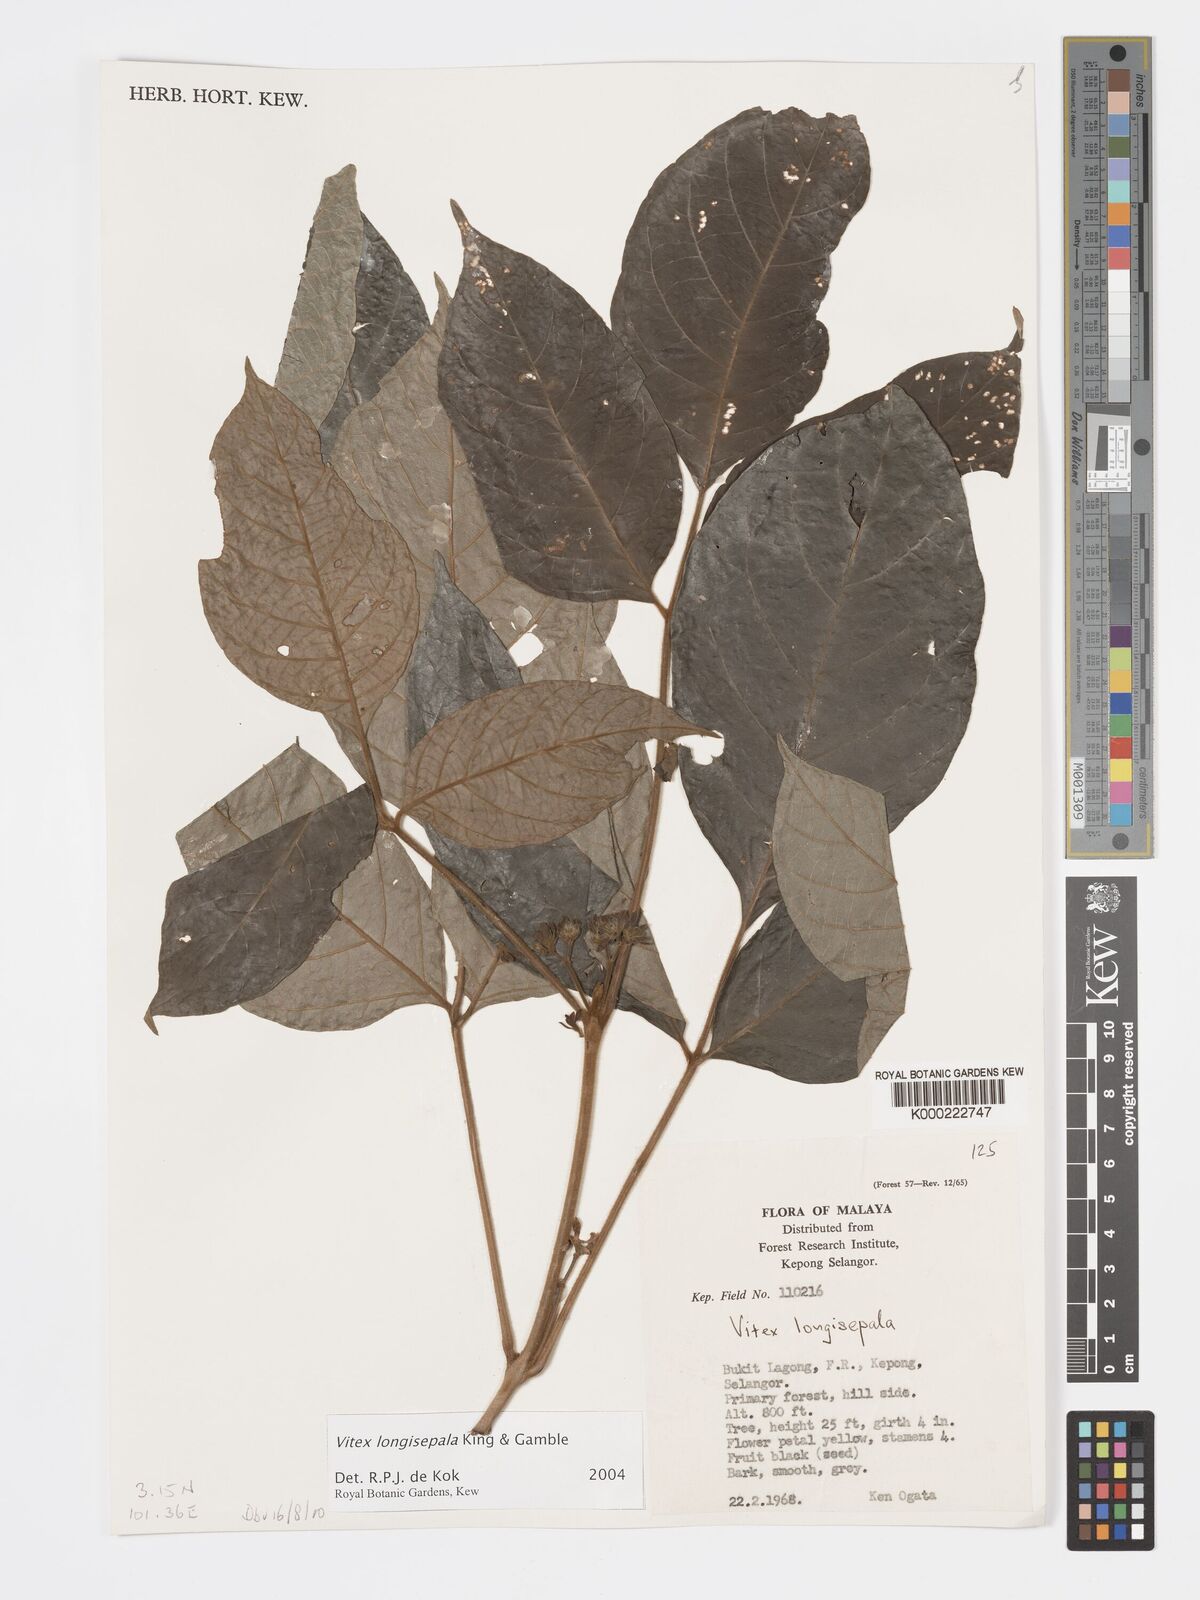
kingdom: Plantae
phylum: Tracheophyta
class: Magnoliopsida
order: Lamiales
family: Lamiaceae
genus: Vitex
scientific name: Vitex longisepala
